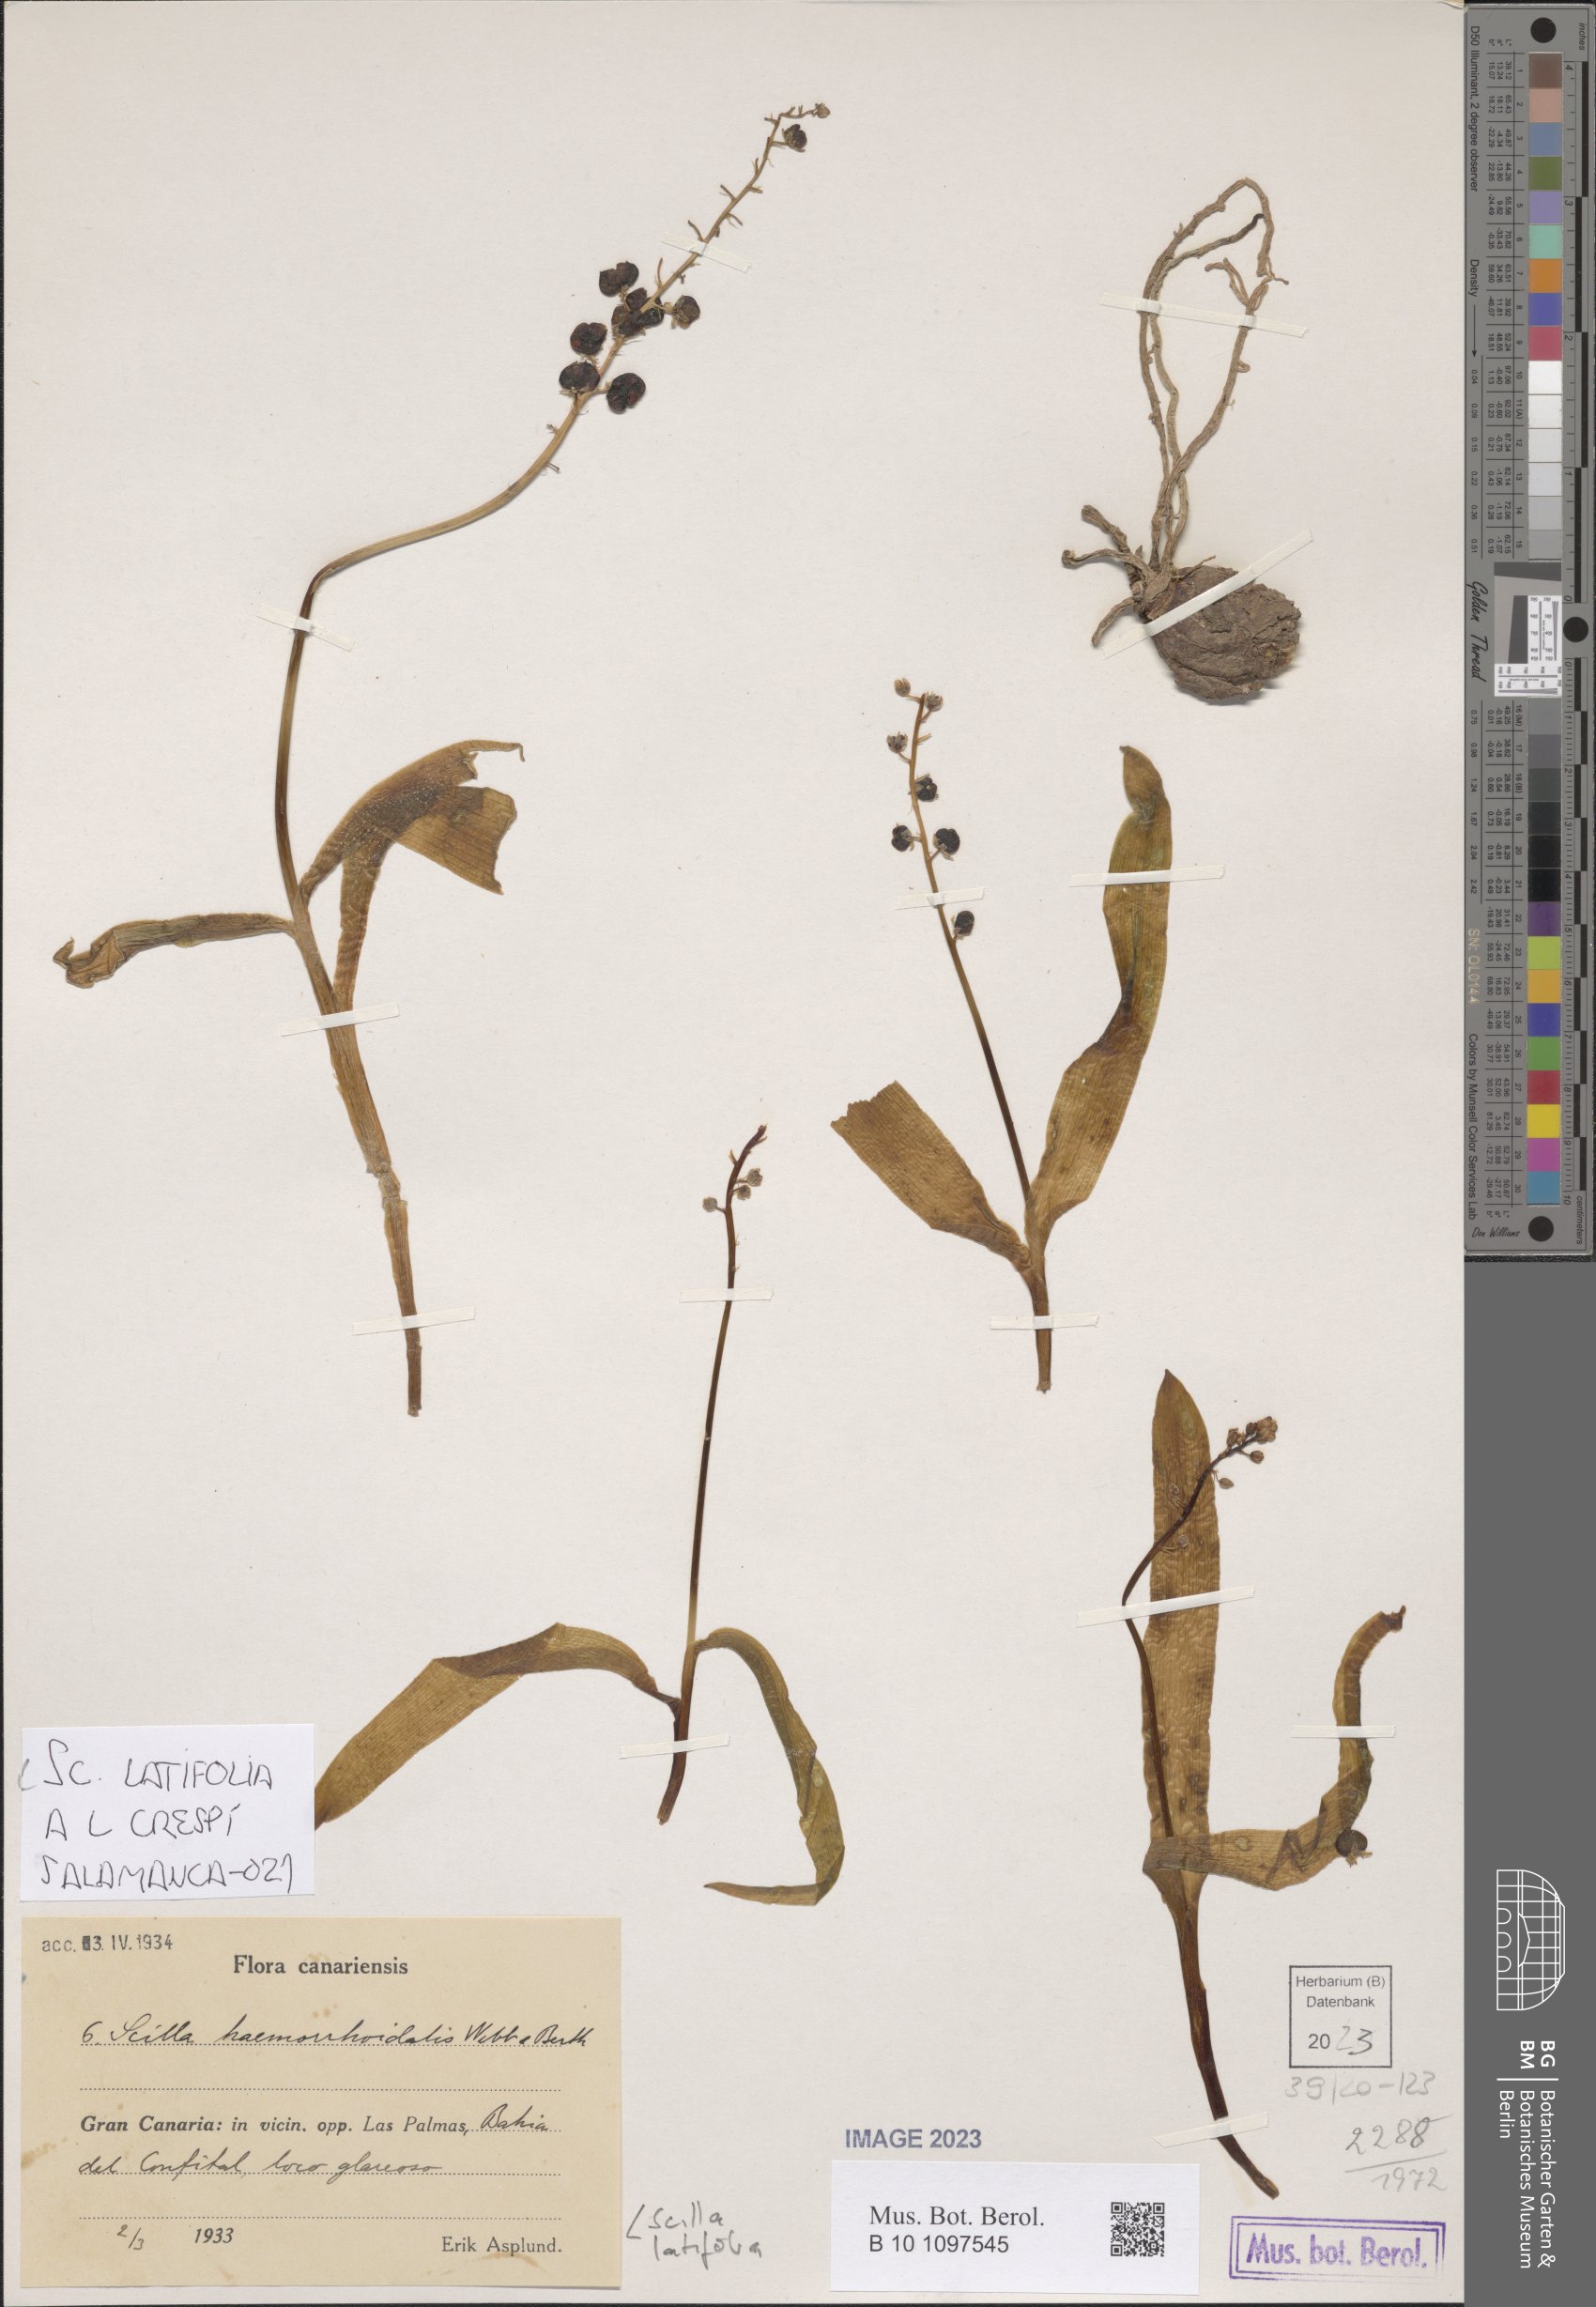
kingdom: Plantae
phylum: Tracheophyta
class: Liliopsida
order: Asparagales
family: Asparagaceae
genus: Scilla
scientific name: Scilla latifolia
